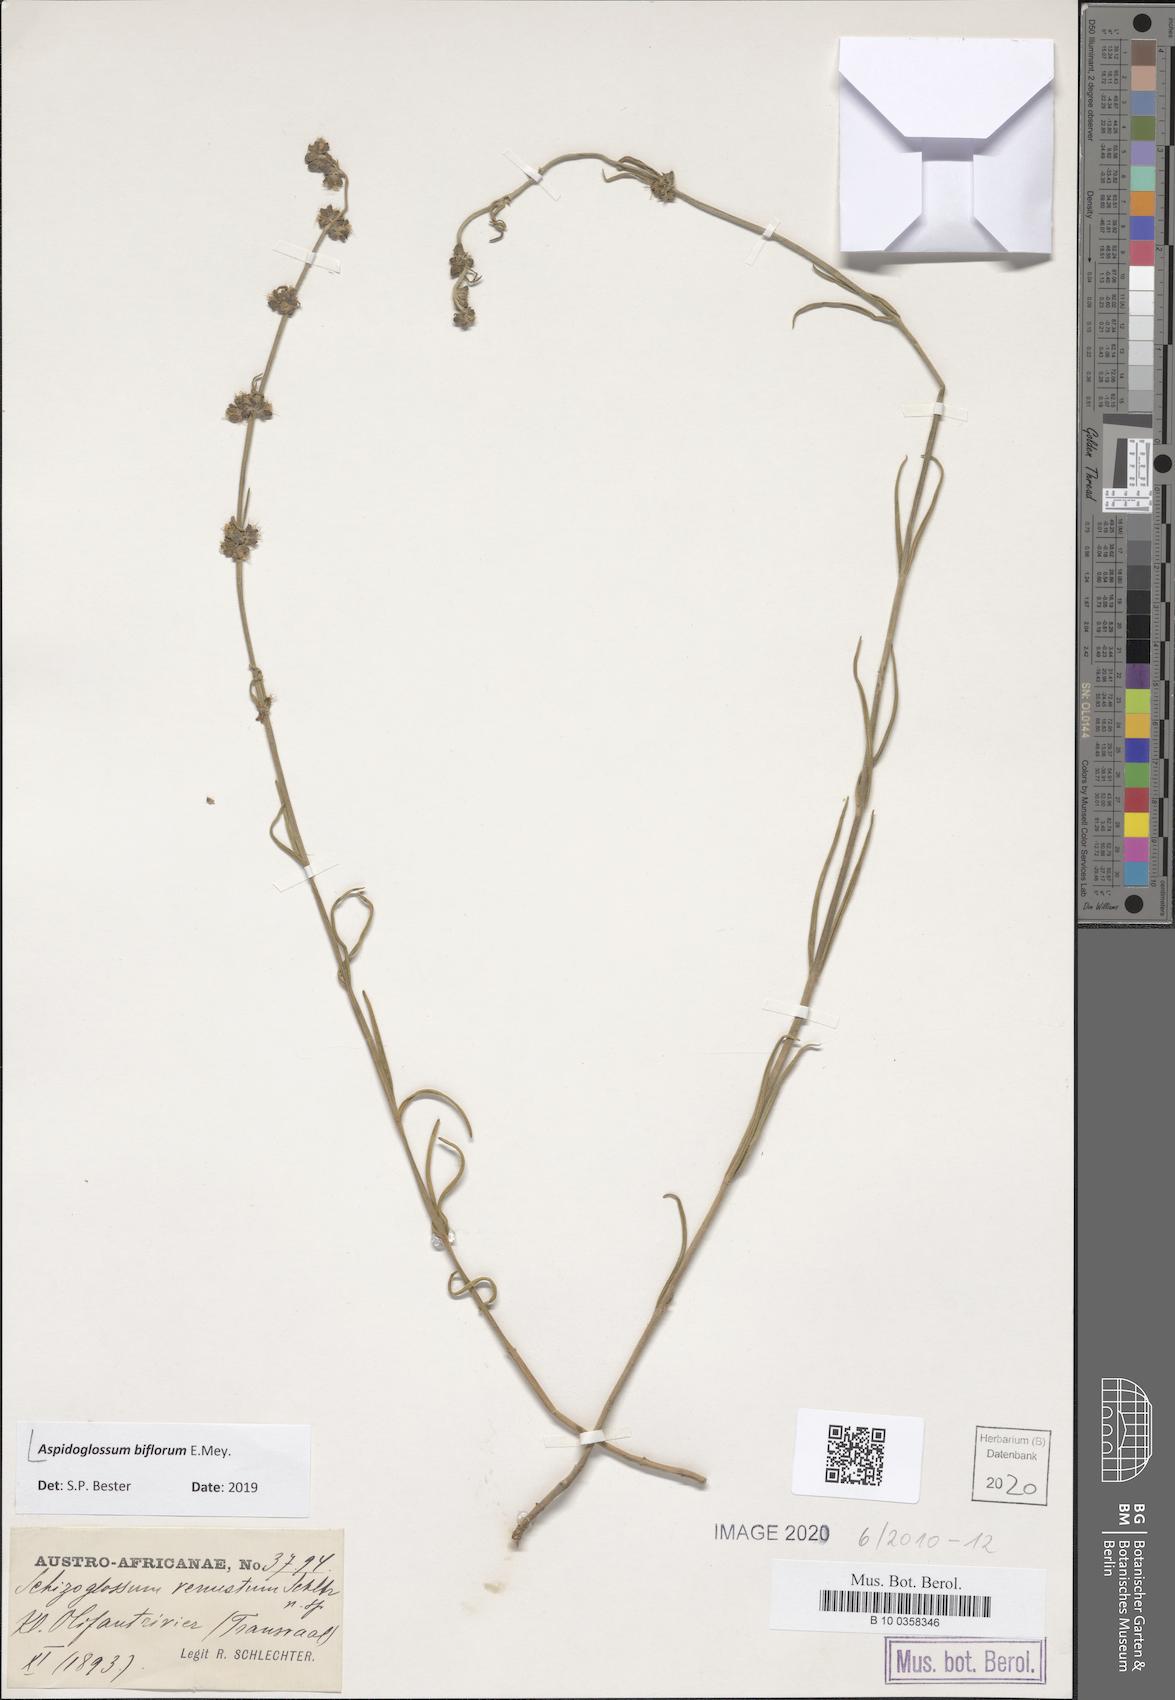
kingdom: Plantae
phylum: Tracheophyta
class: Magnoliopsida
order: Gentianales
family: Apocynaceae
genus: Aspidoglossum
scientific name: Aspidoglossum biflorum
